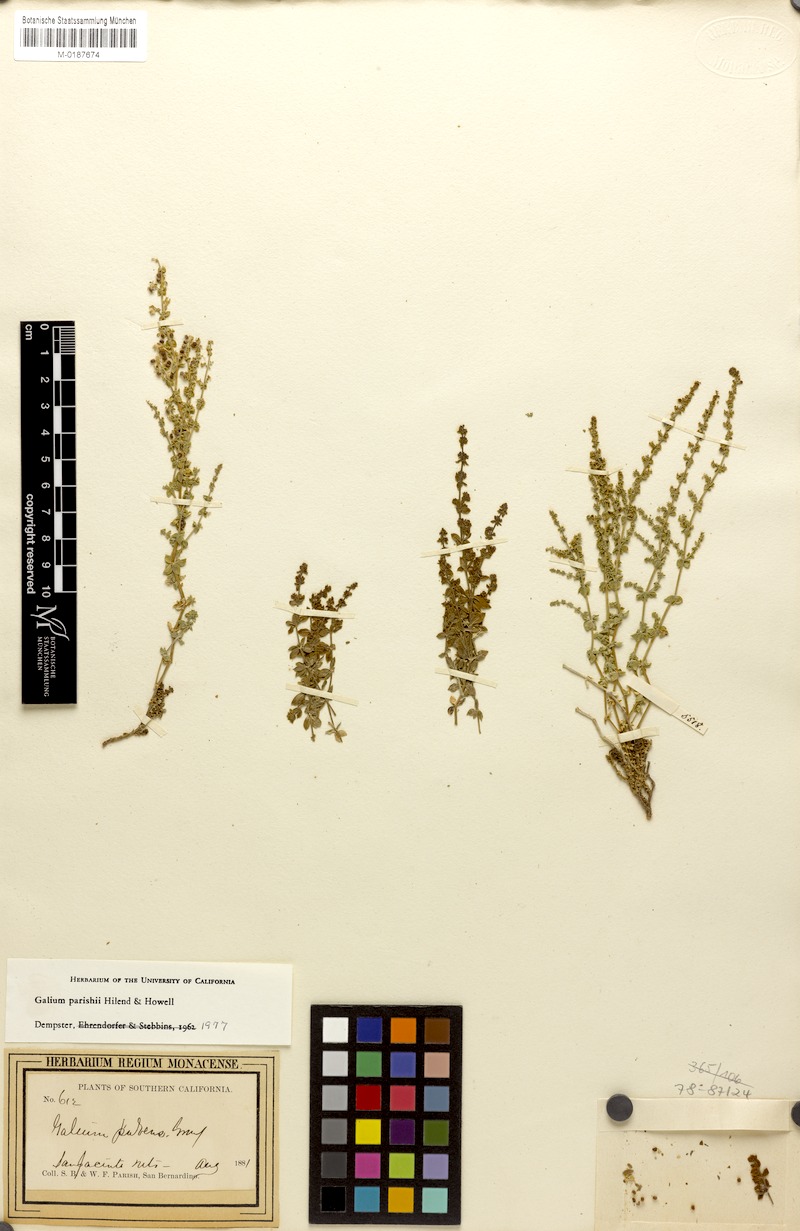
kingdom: Plantae
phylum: Tracheophyta
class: Magnoliopsida
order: Gentianales
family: Rubiaceae
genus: Galium
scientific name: Galium parishii
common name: Parish's bedstraw
